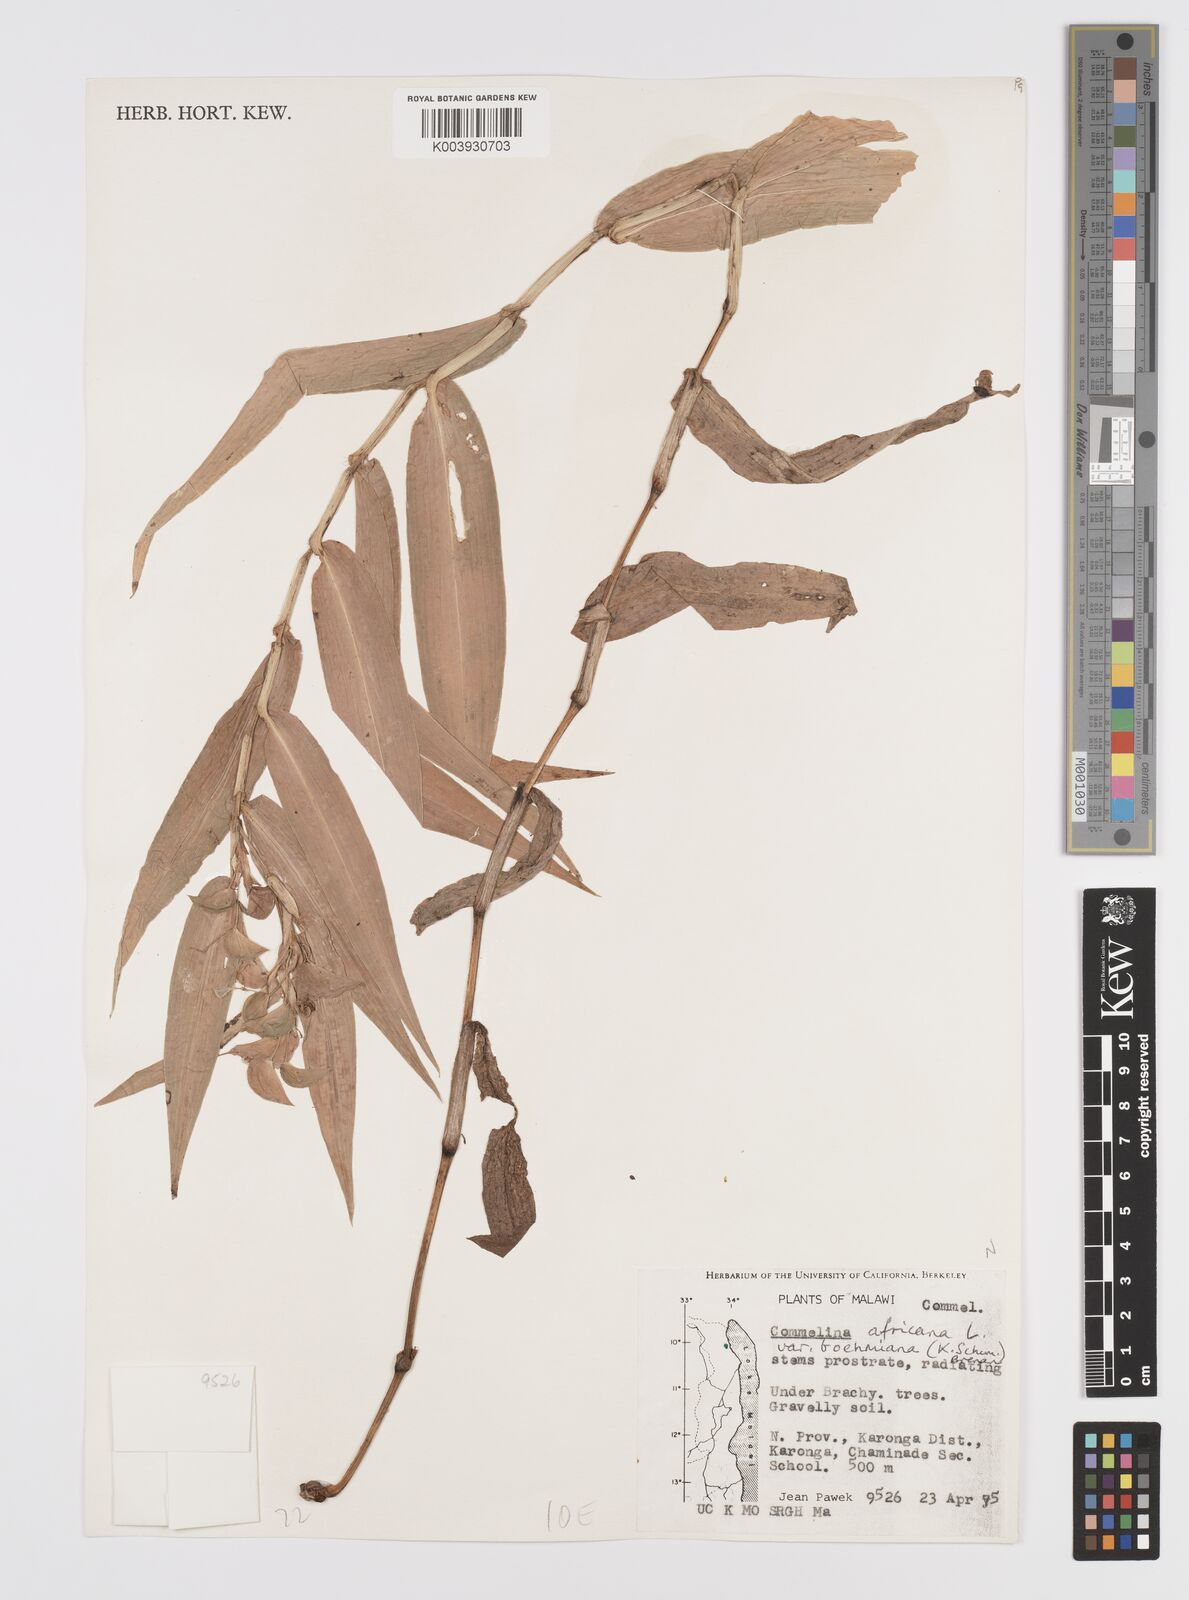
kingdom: Plantae
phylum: Tracheophyta
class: Liliopsida
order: Commelinales
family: Commelinaceae
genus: Commelina
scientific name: Commelina africana
